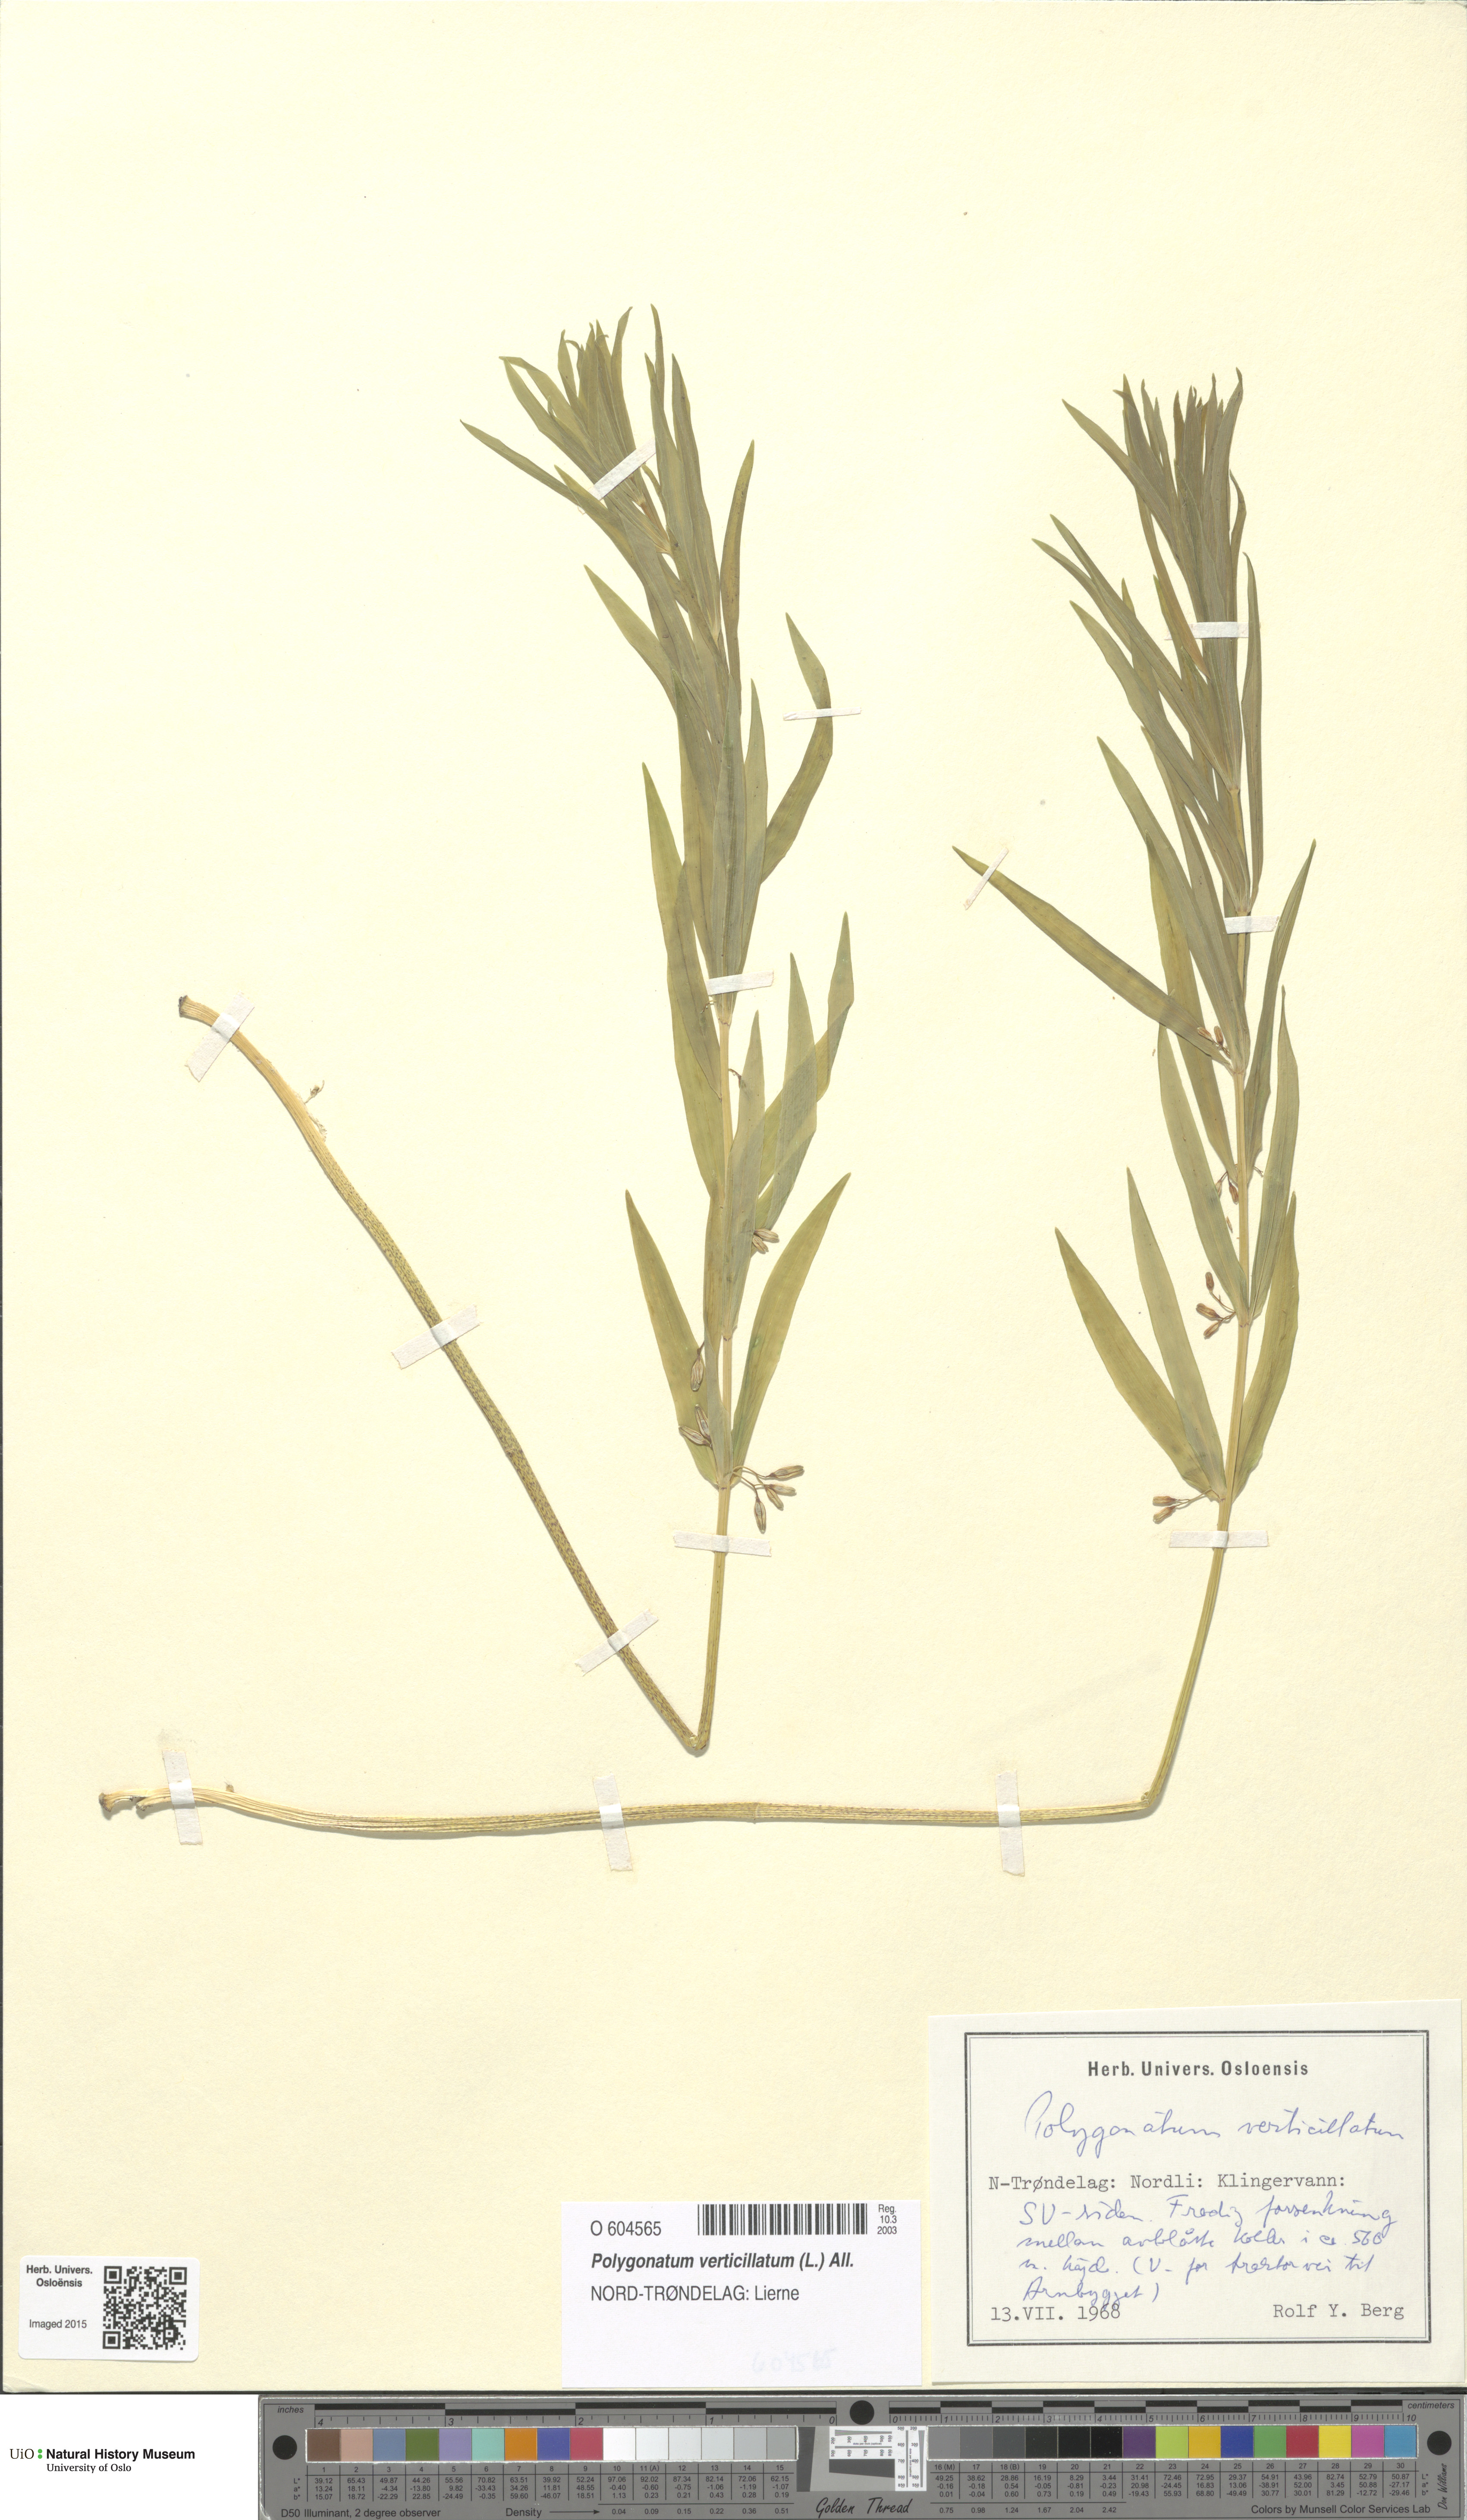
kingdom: Plantae
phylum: Tracheophyta
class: Liliopsida
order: Asparagales
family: Asparagaceae
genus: Polygonatum
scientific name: Polygonatum verticillatum
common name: Whorled solomon's-seal
